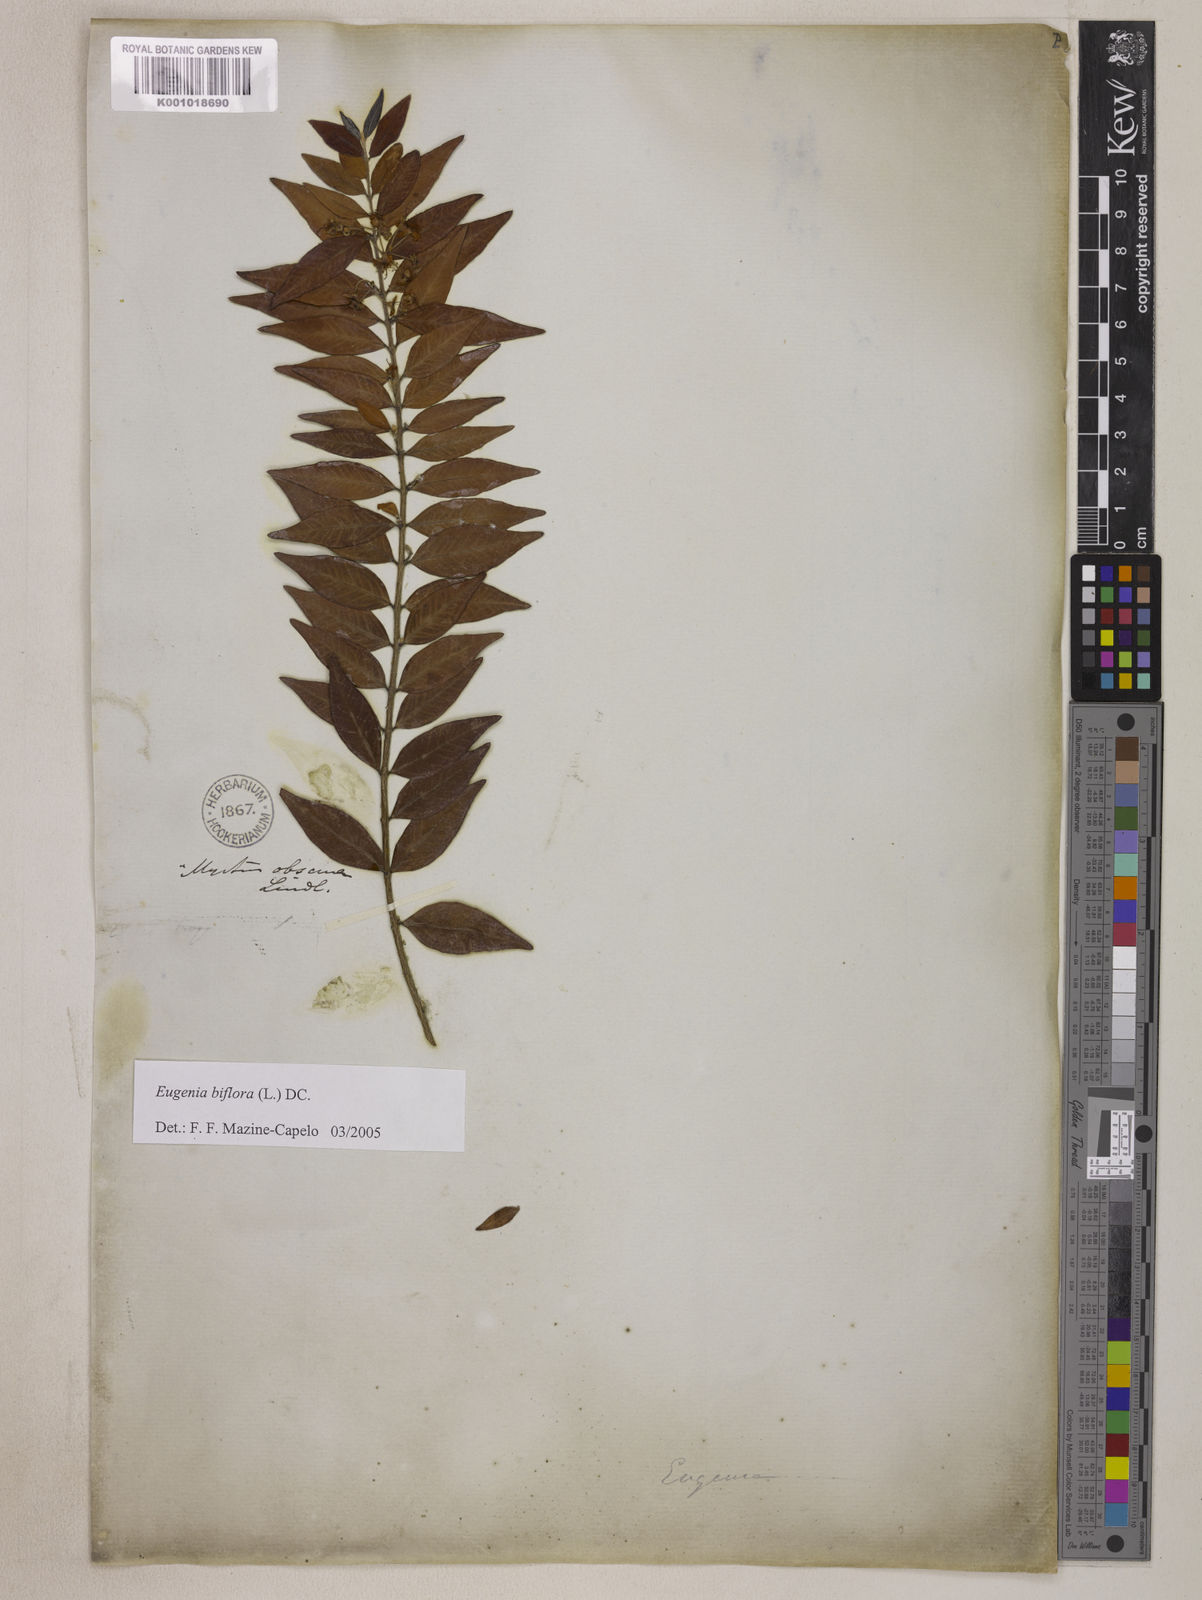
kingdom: Plantae
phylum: Tracheophyta
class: Magnoliopsida
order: Myrtales
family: Myrtaceae
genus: Eugenia
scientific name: Eugenia biflora
